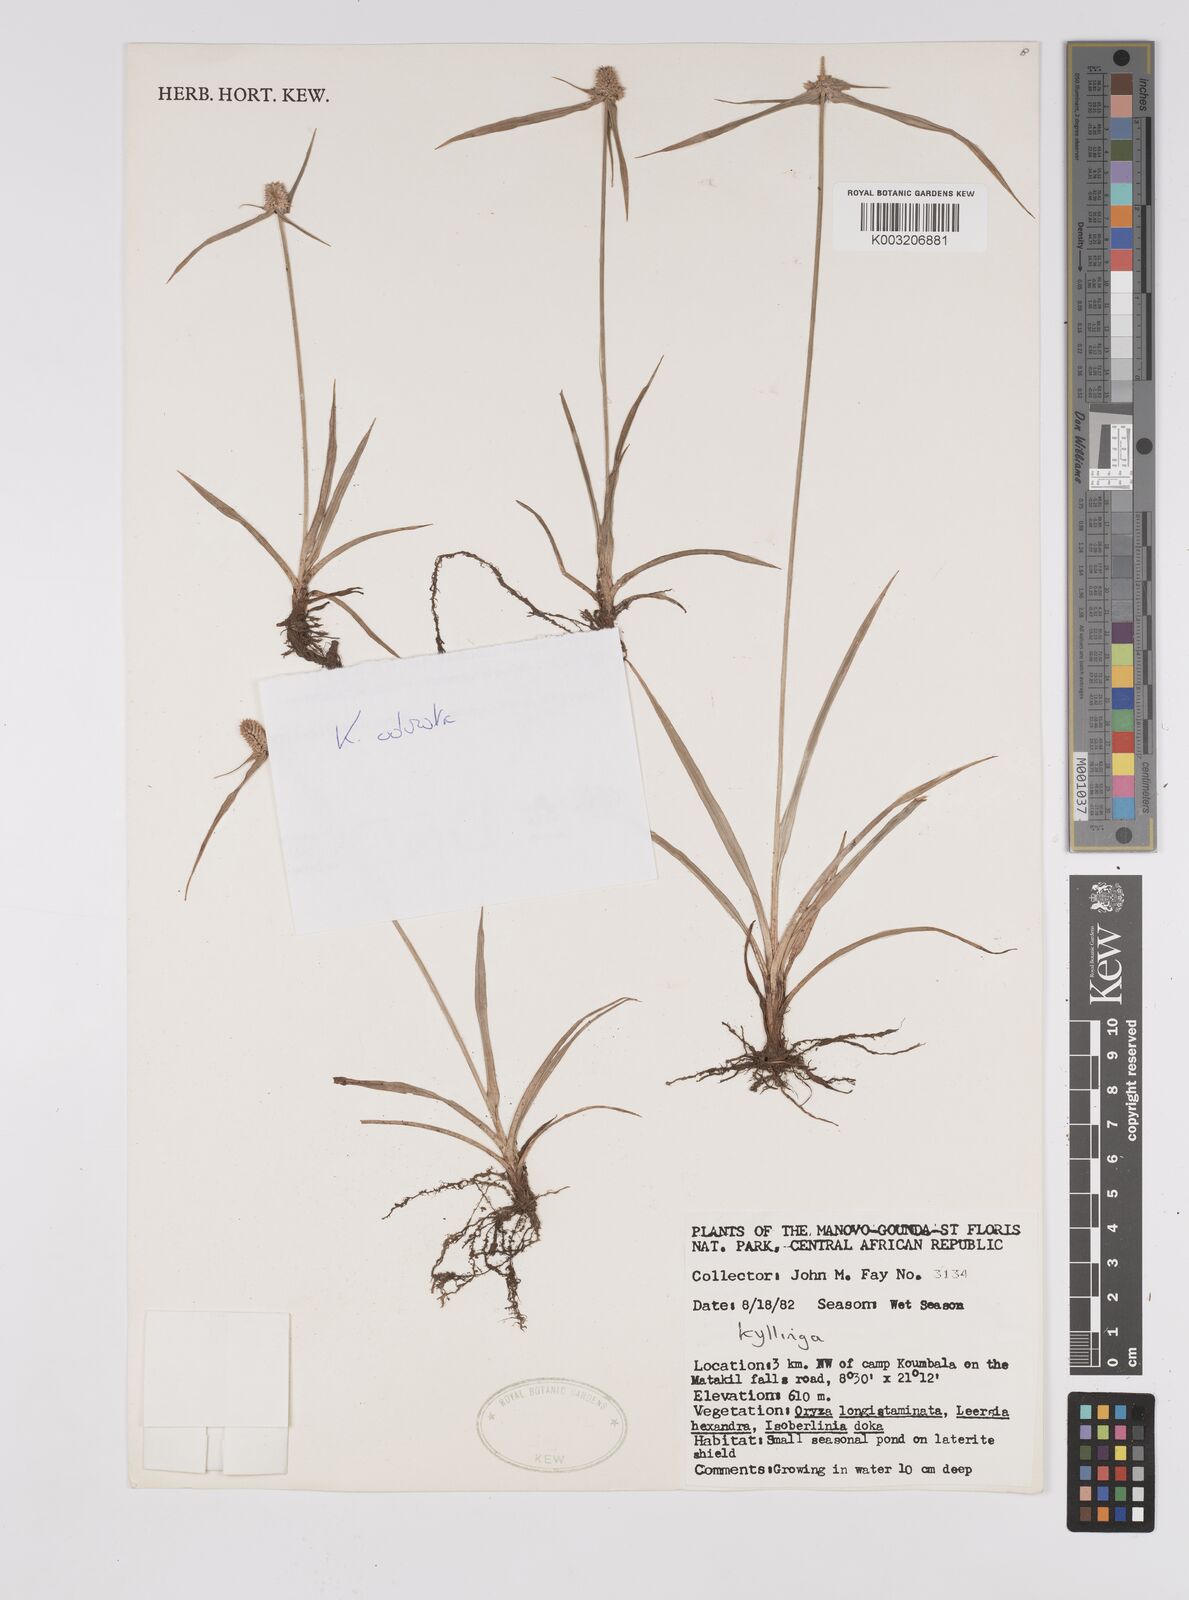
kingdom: Plantae
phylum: Tracheophyta
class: Liliopsida
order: Poales
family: Cyperaceae
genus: Cyperus
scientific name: Cyperus odoratus
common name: Fragrant flatsedge
